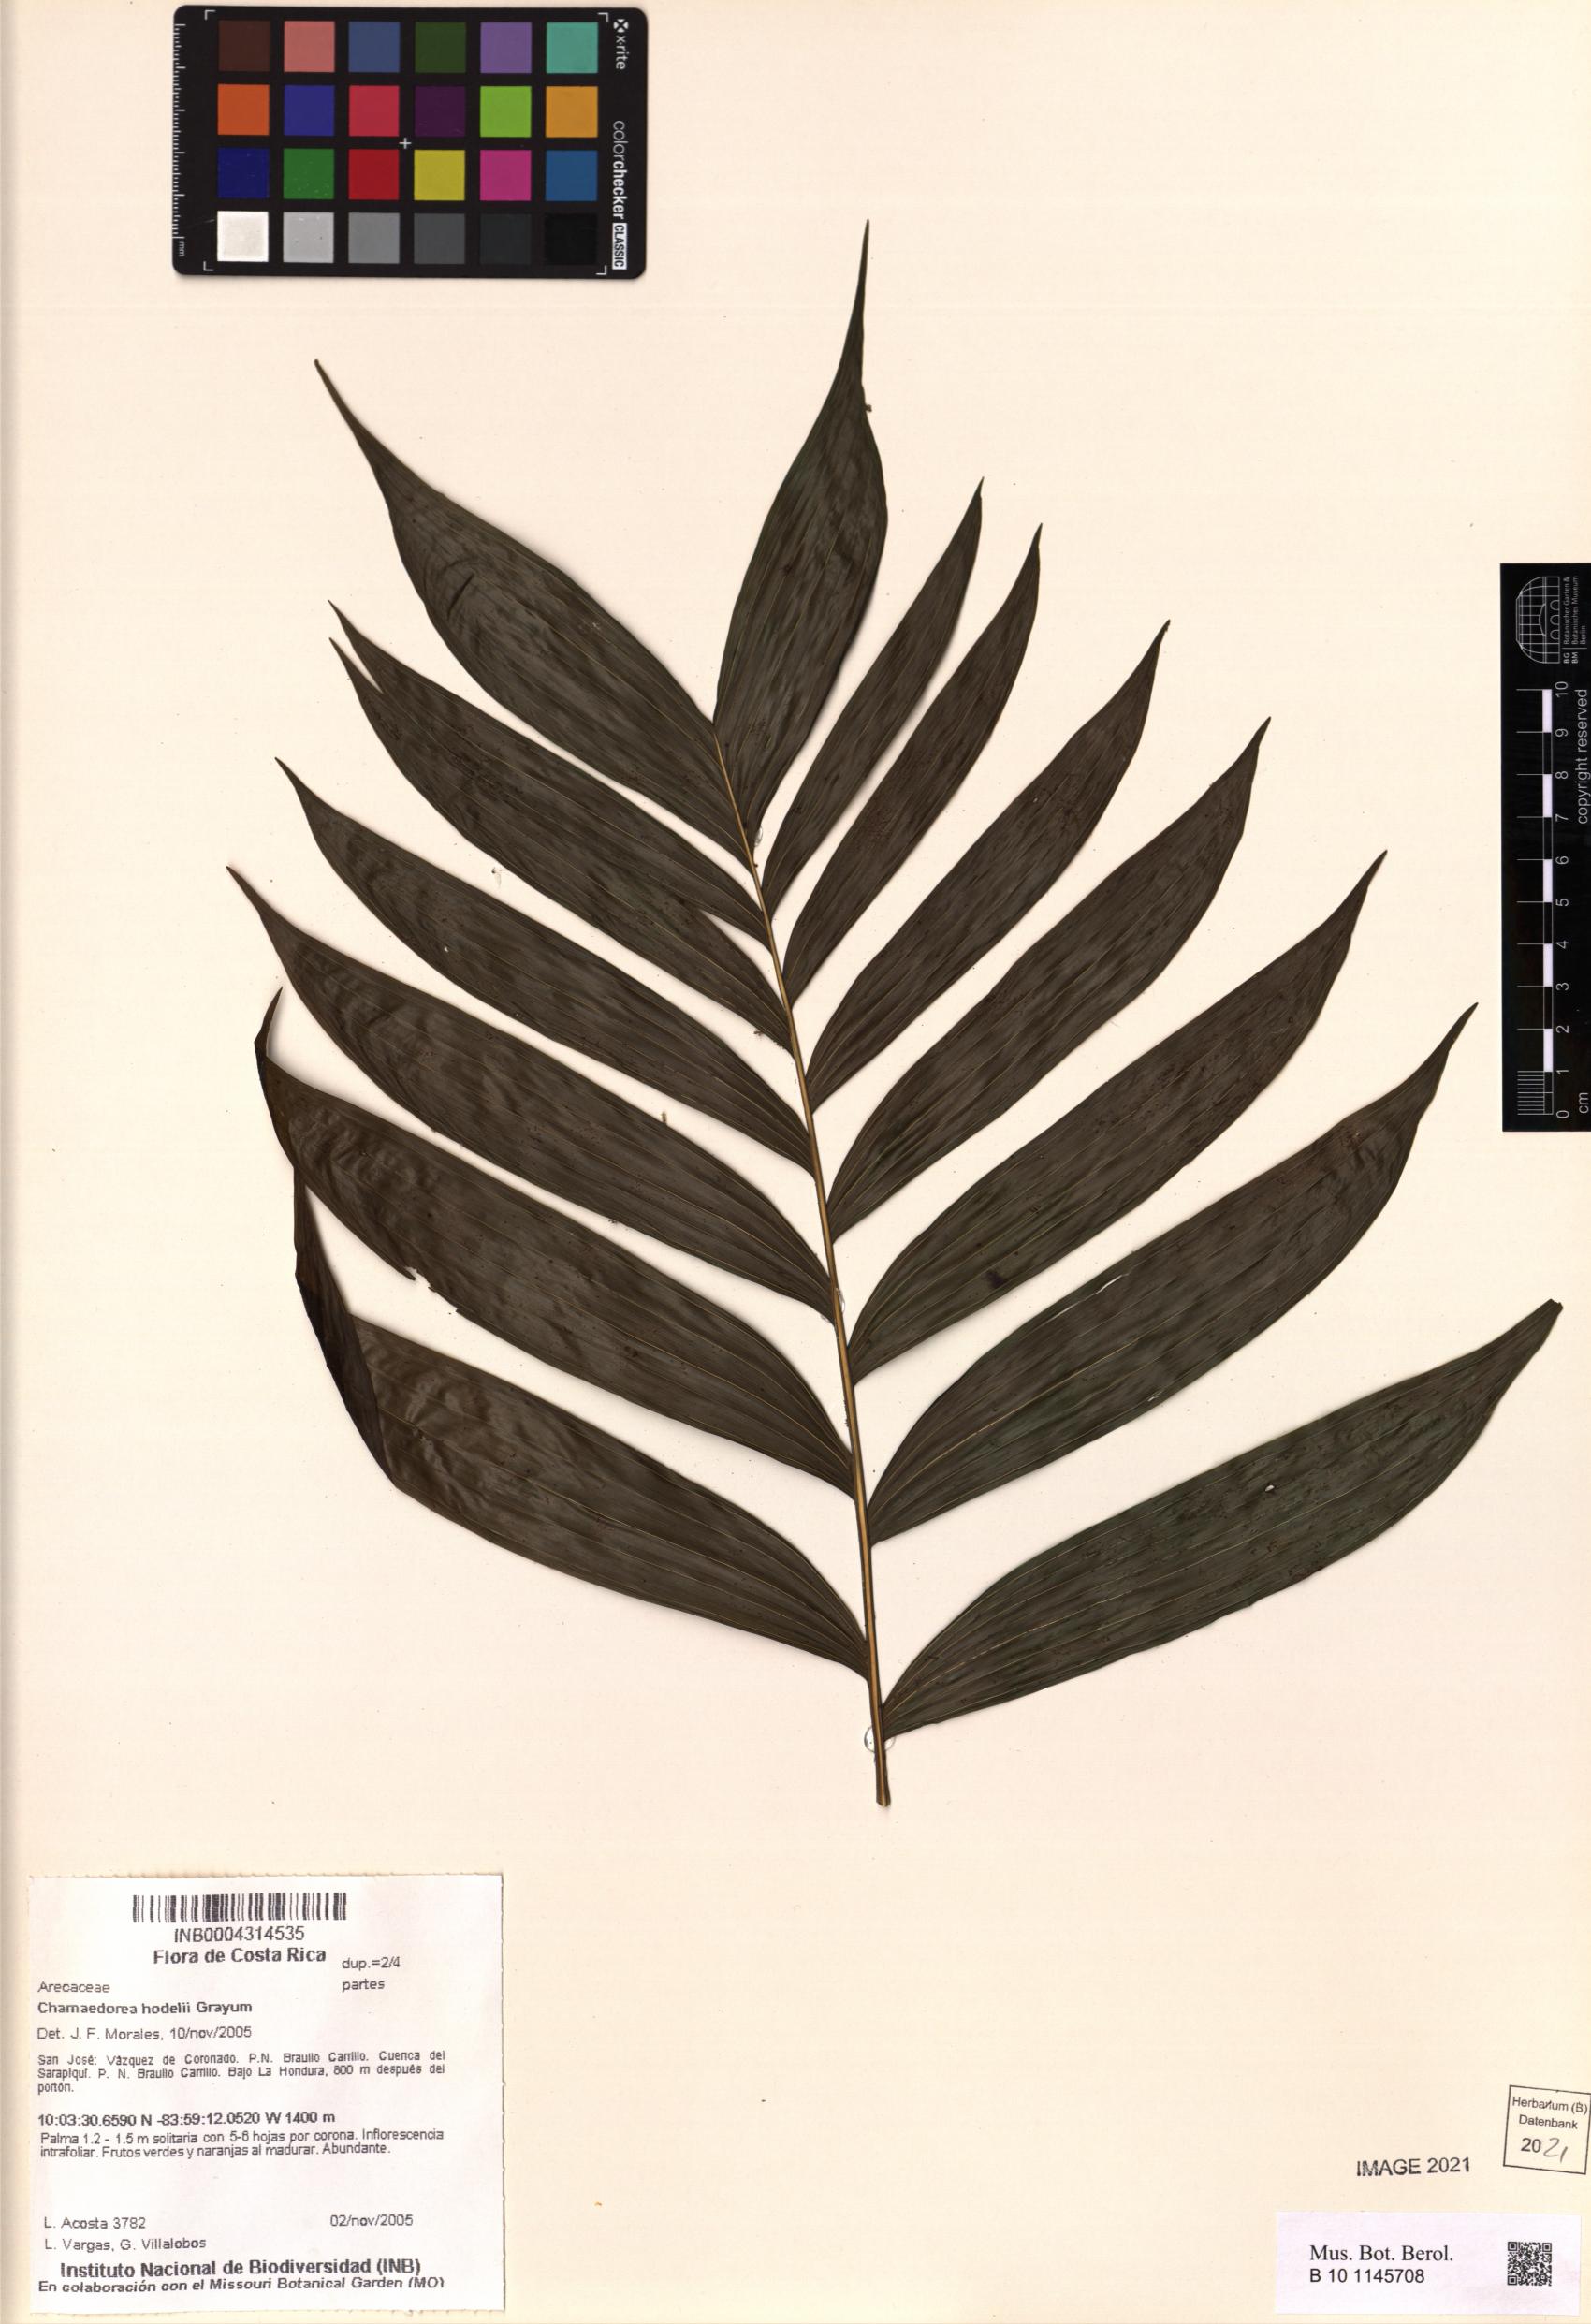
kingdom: Plantae
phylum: Tracheophyta
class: Liliopsida
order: Arecales
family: Arecaceae
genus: Chamaedorea
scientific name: Chamaedorea hodelii
